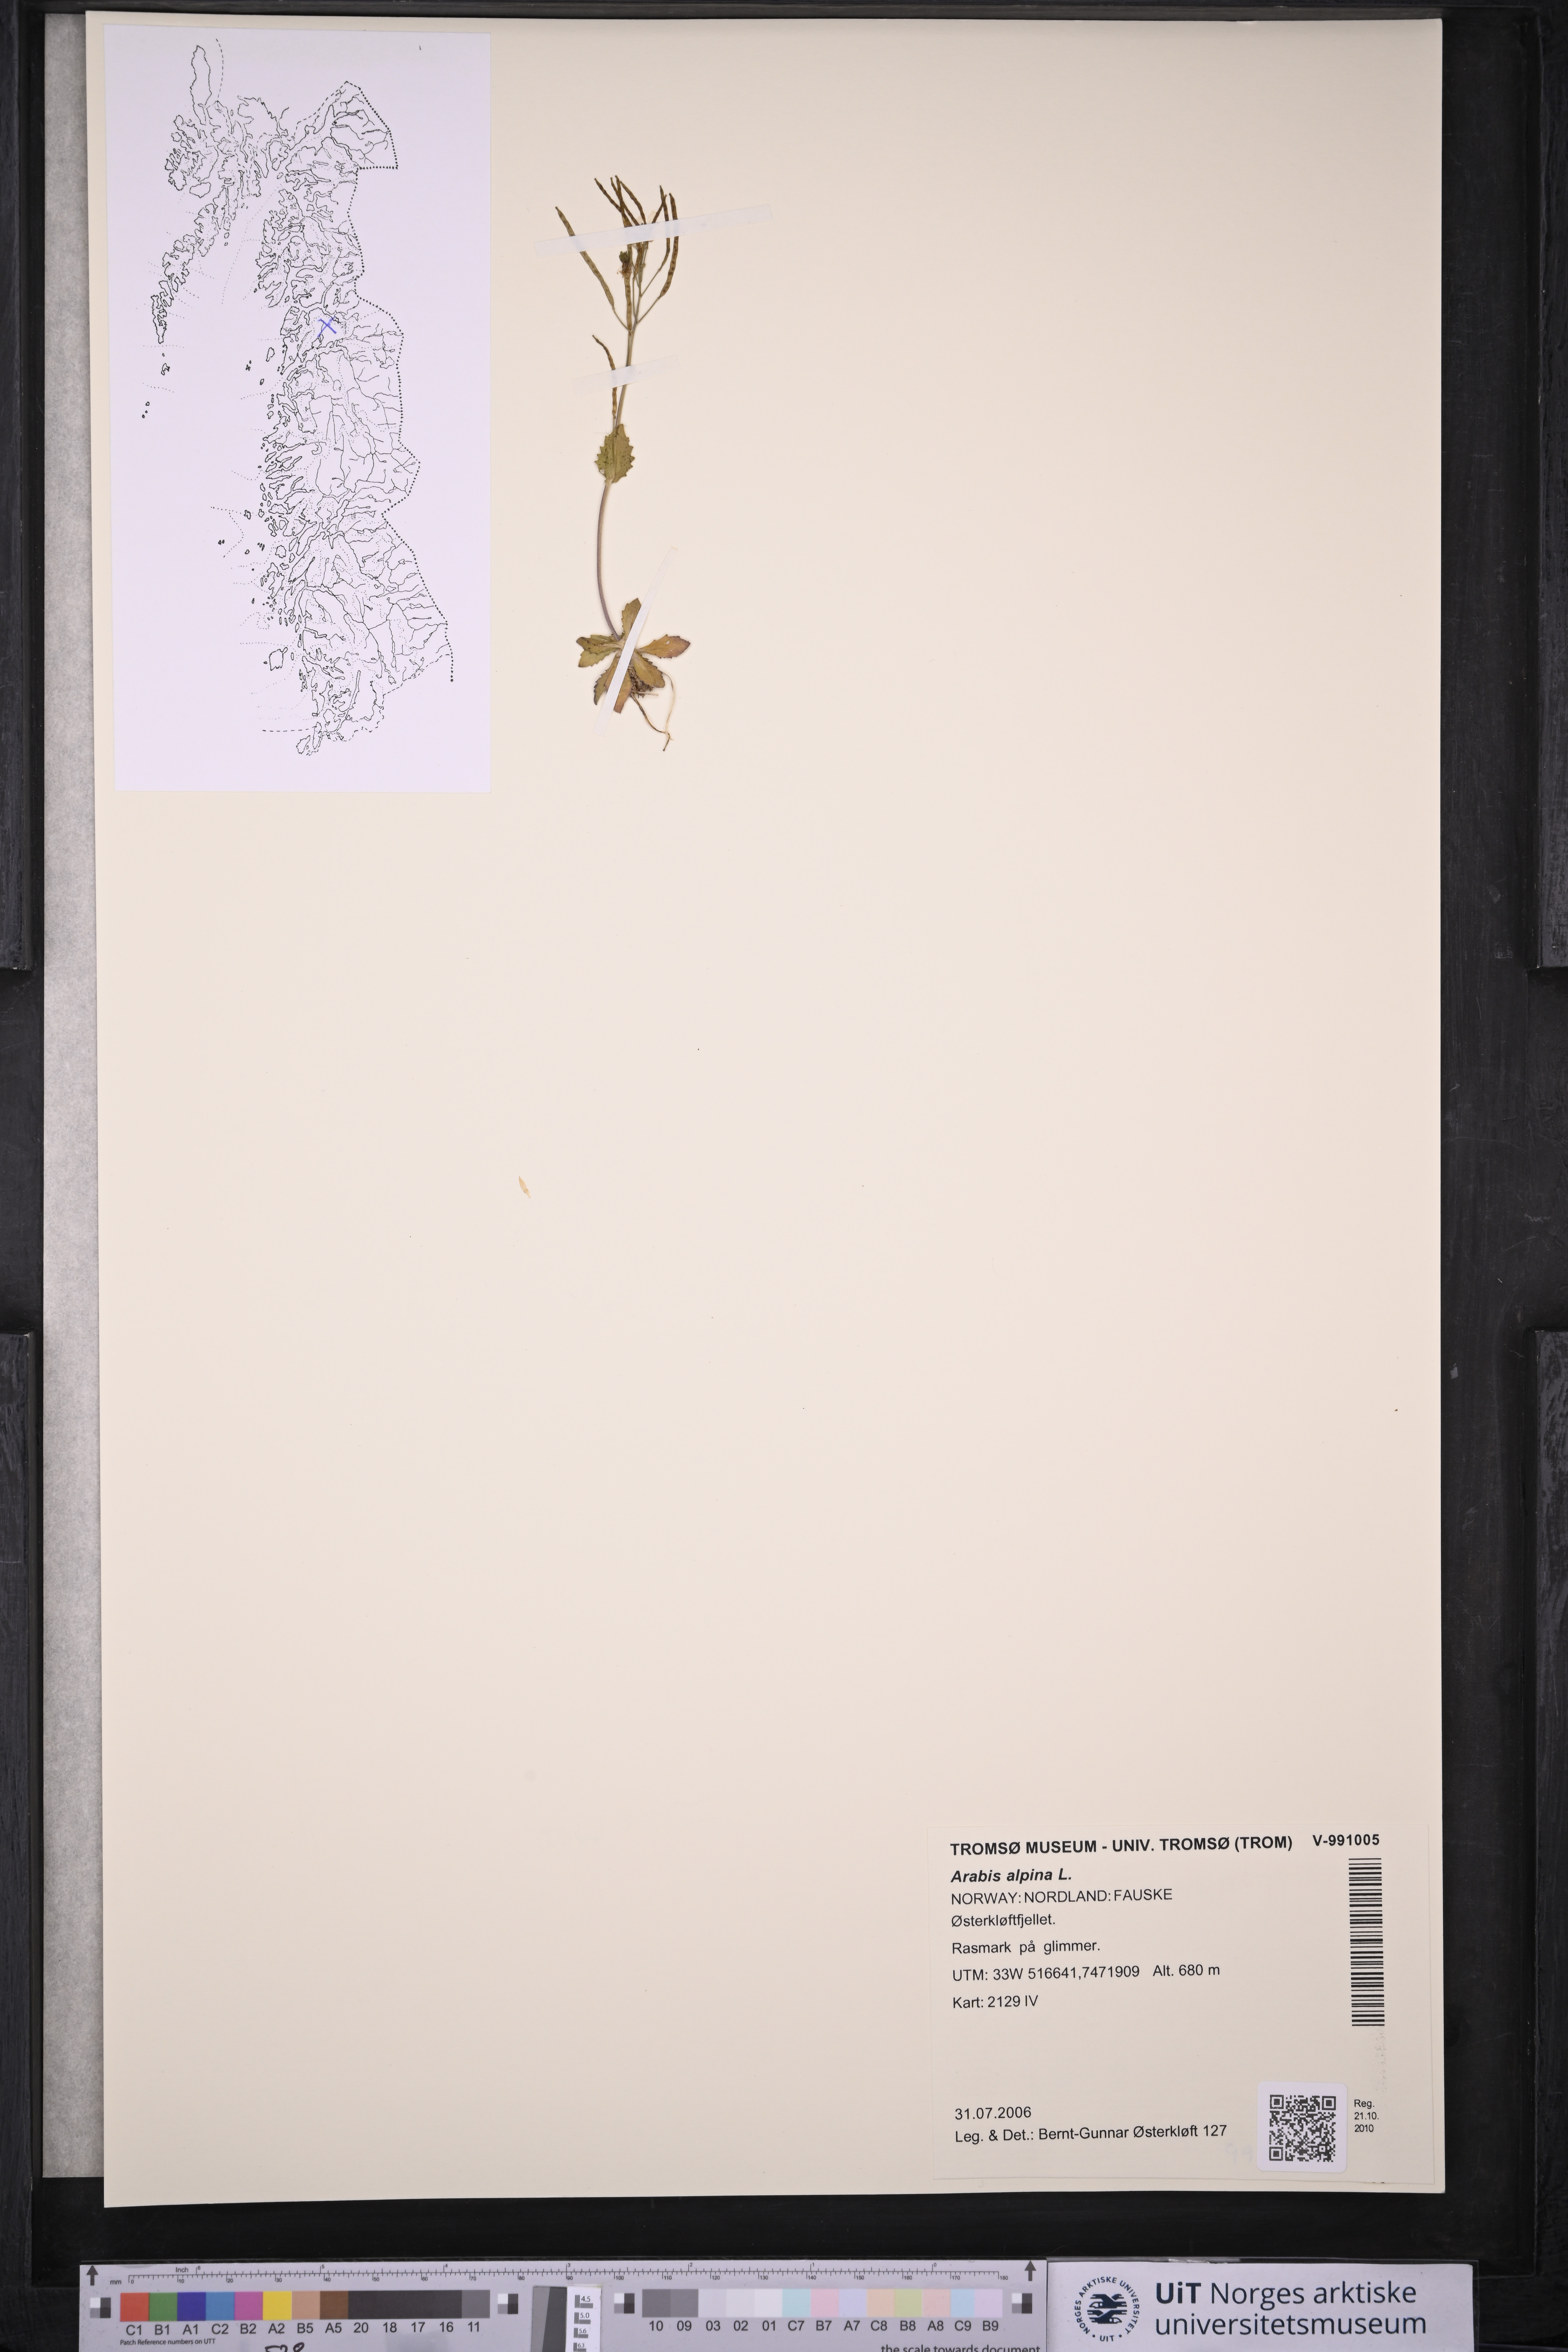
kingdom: Plantae
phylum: Tracheophyta
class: Magnoliopsida
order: Brassicales
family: Brassicaceae
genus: Arabis
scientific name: Arabis alpina
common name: Alpine rock-cress
